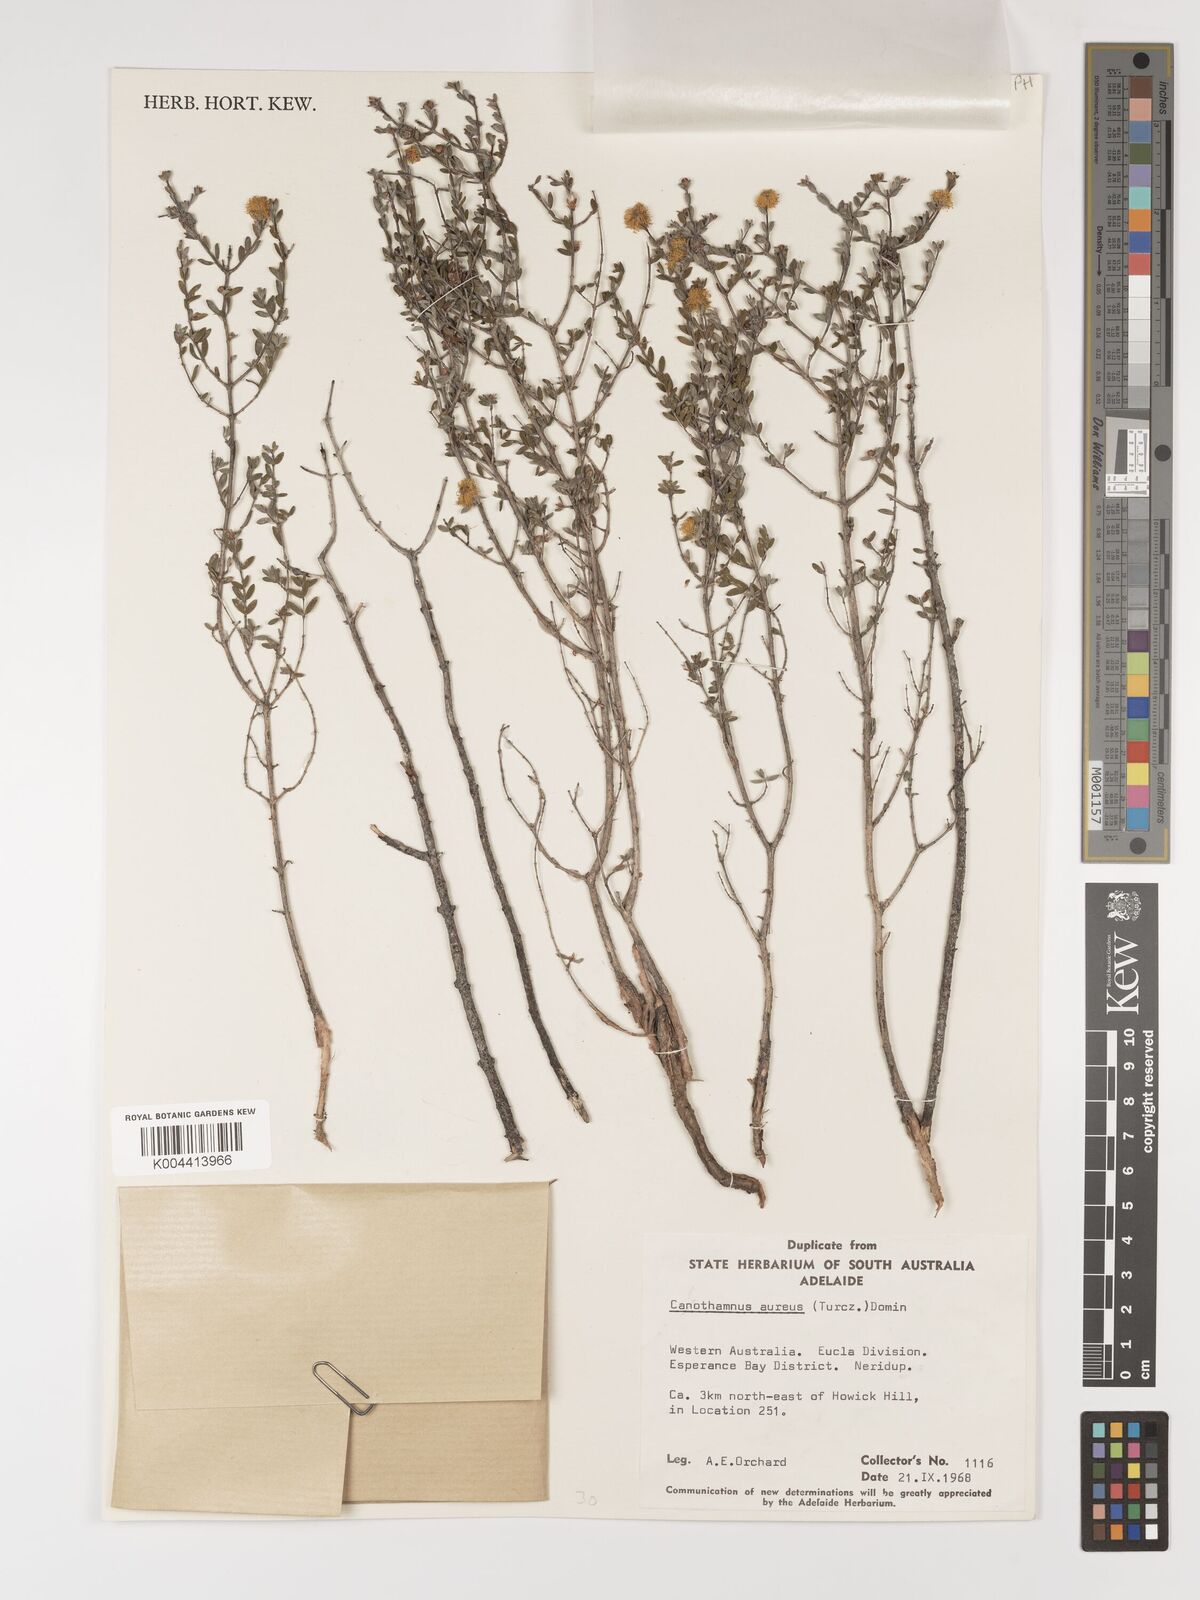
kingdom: Plantae
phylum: Tracheophyta
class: Magnoliopsida
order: Myrtales
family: Myrtaceae
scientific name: Myrtaceae
